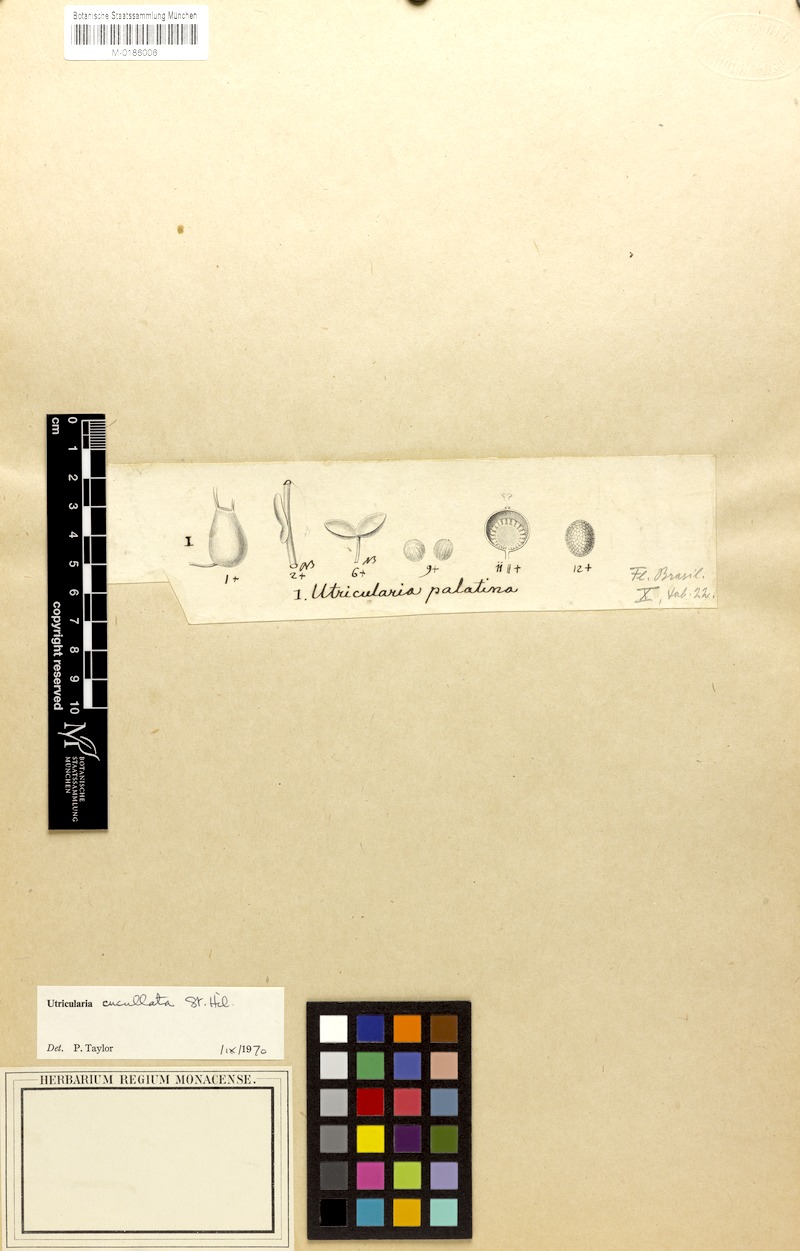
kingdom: Plantae
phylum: Tracheophyta
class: Magnoliopsida
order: Lamiales
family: Lentibulariaceae
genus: Utricularia
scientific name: Utricularia cucullata
